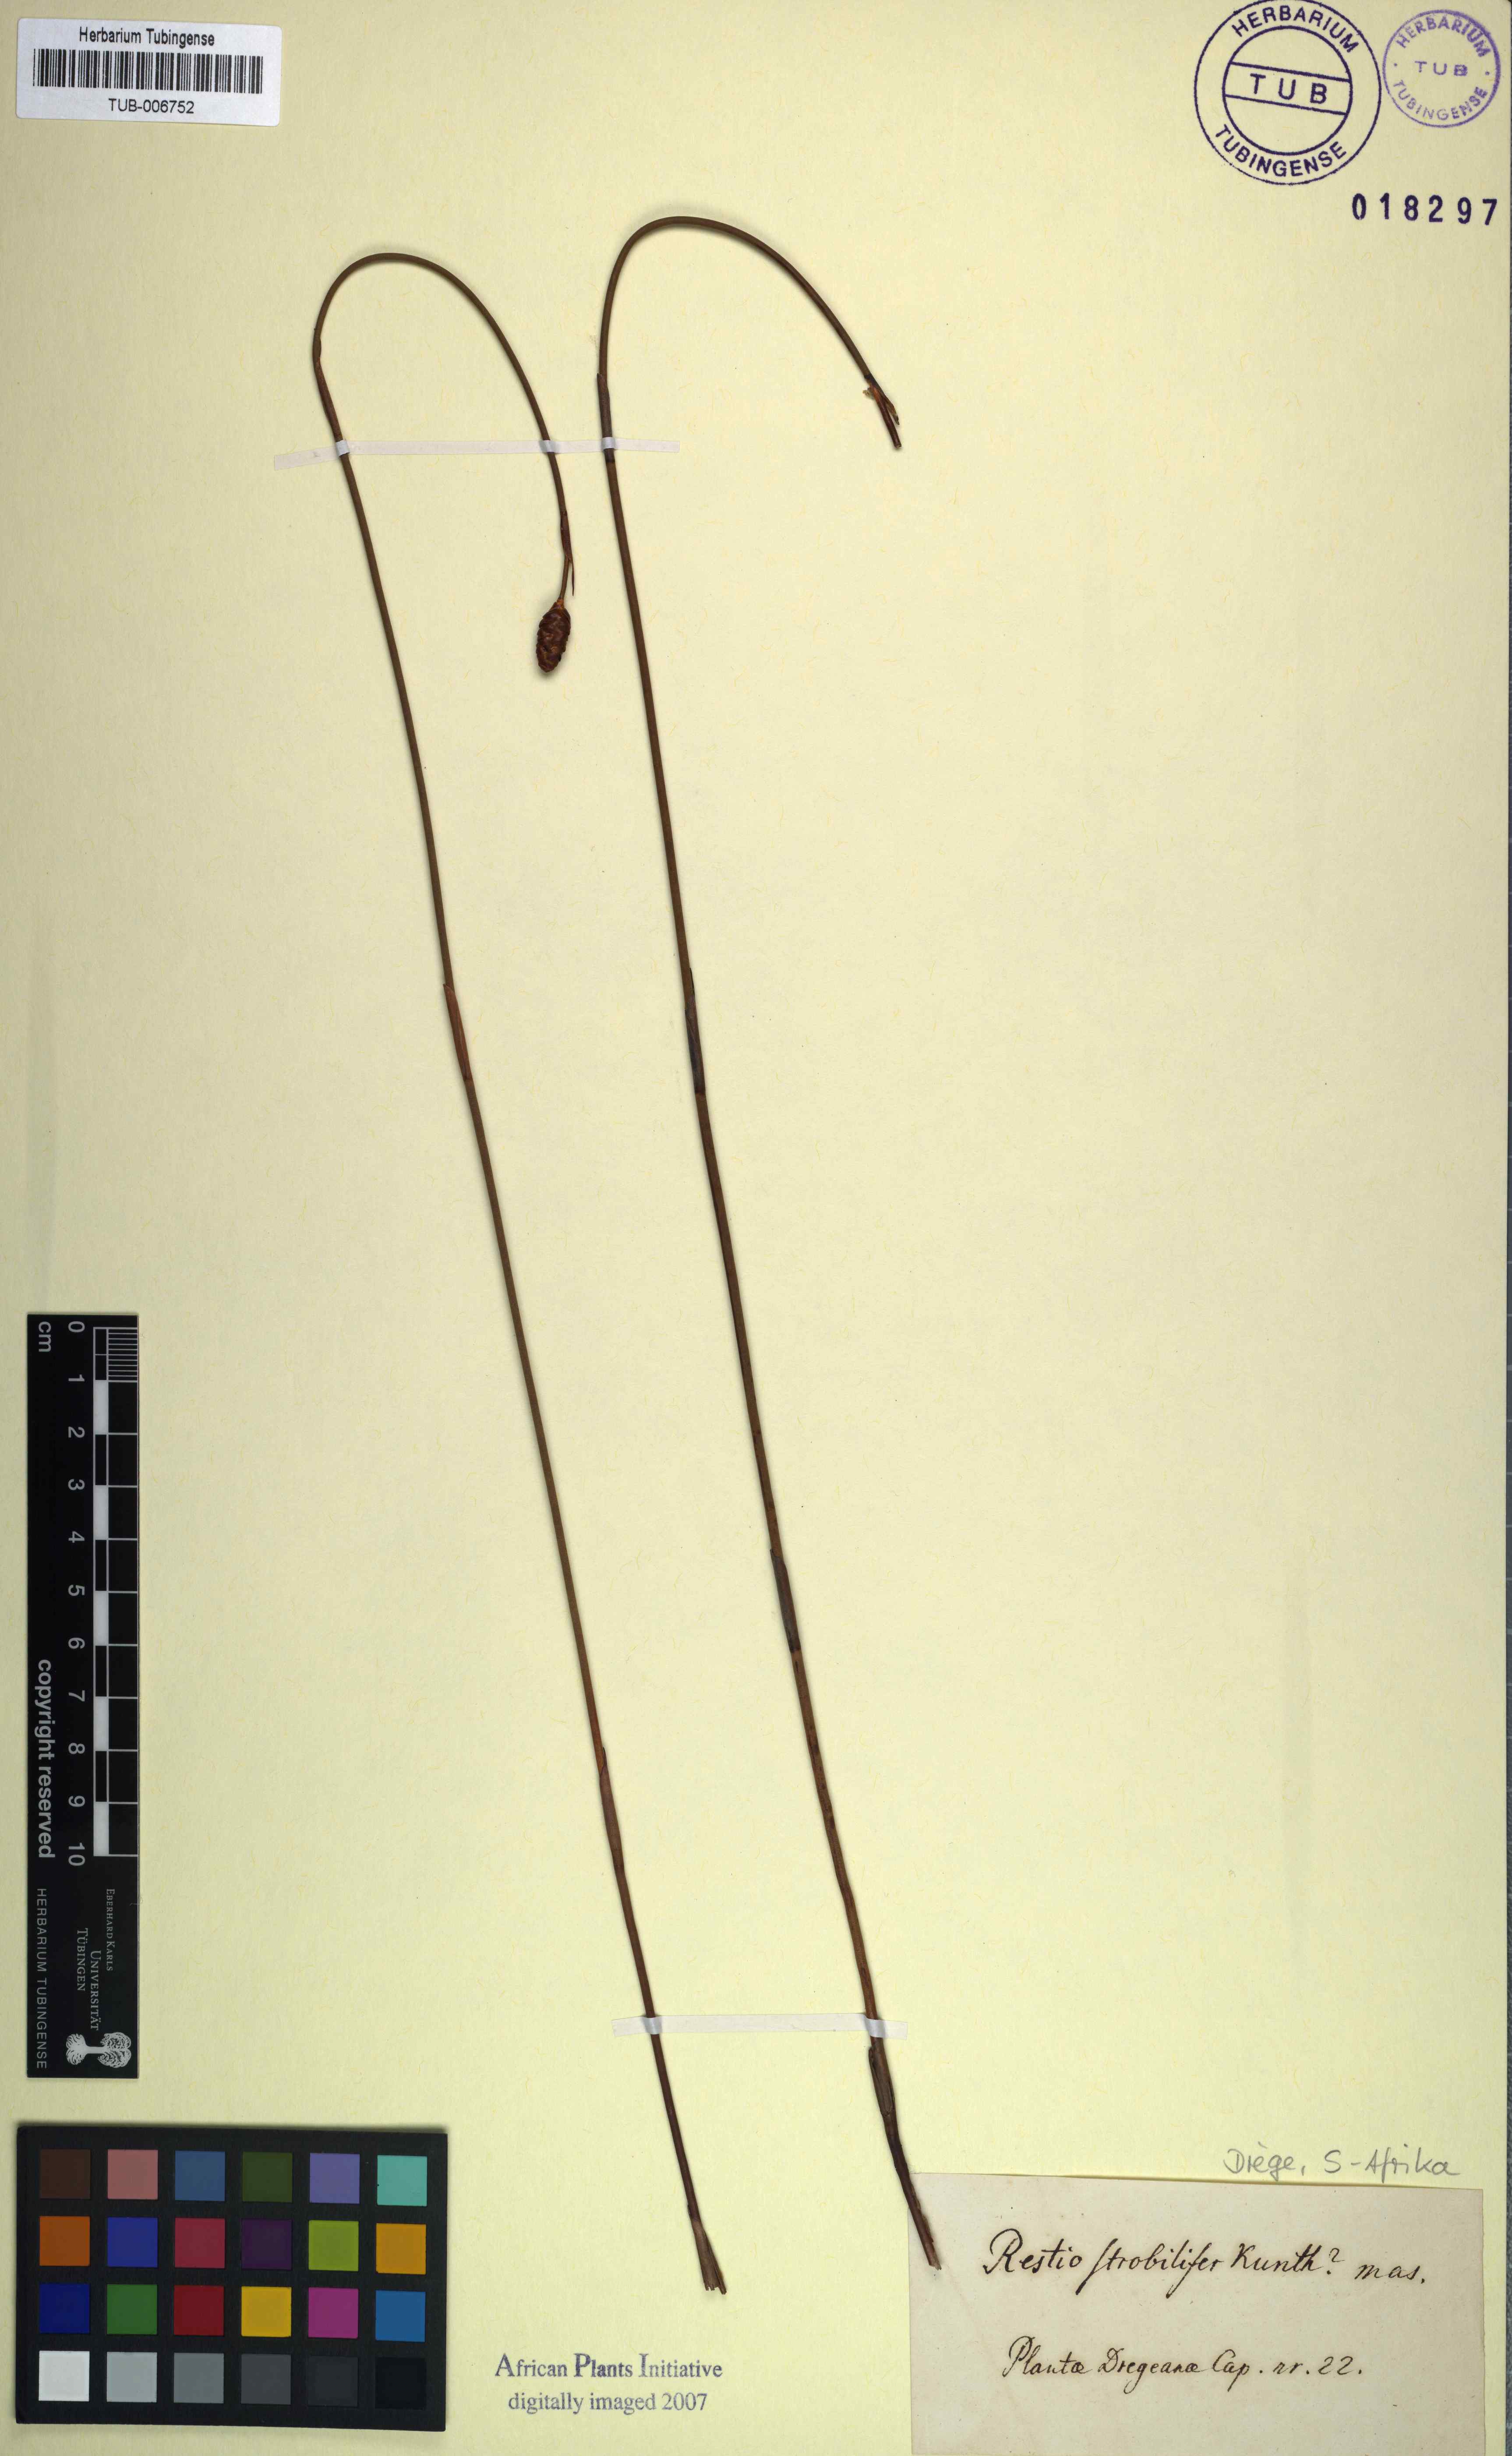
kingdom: Plantae
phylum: Tracheophyta
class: Liliopsida
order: Poales
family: Restionaceae
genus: Restio
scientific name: Restio strobilifer
